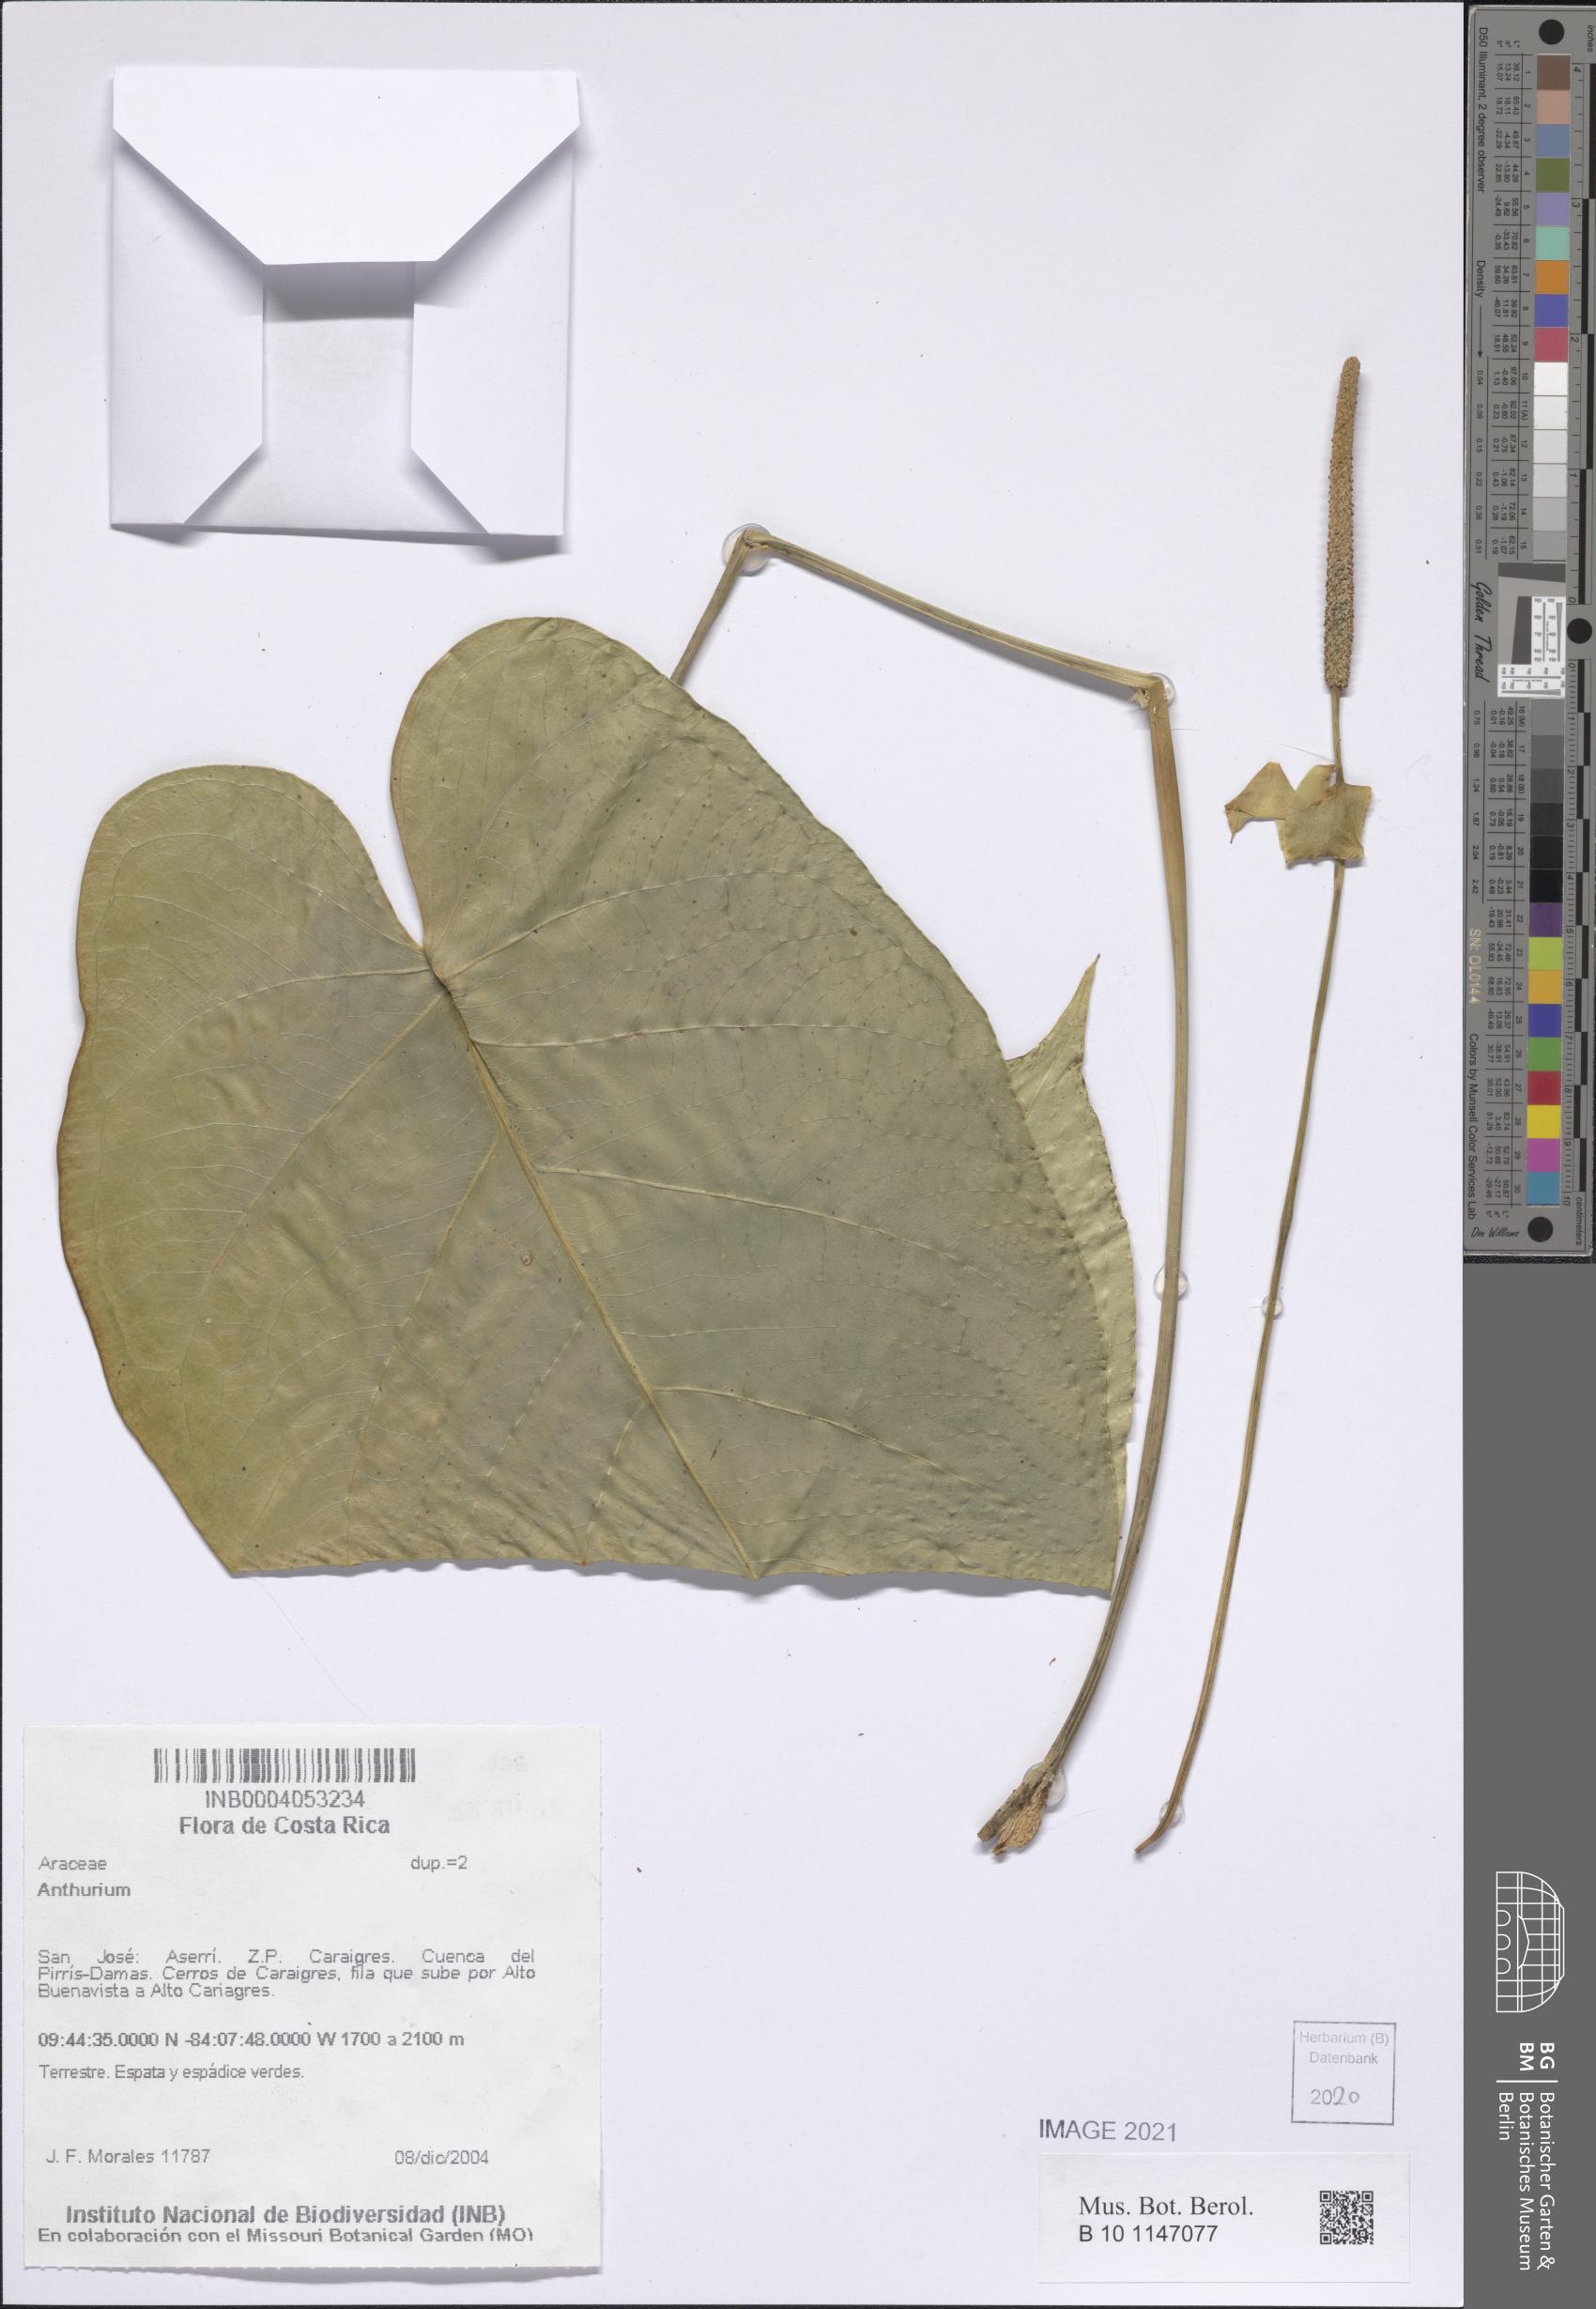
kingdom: Plantae
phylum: Tracheophyta
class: Liliopsida
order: Alismatales
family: Araceae
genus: Anthurium
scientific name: Anthurium
